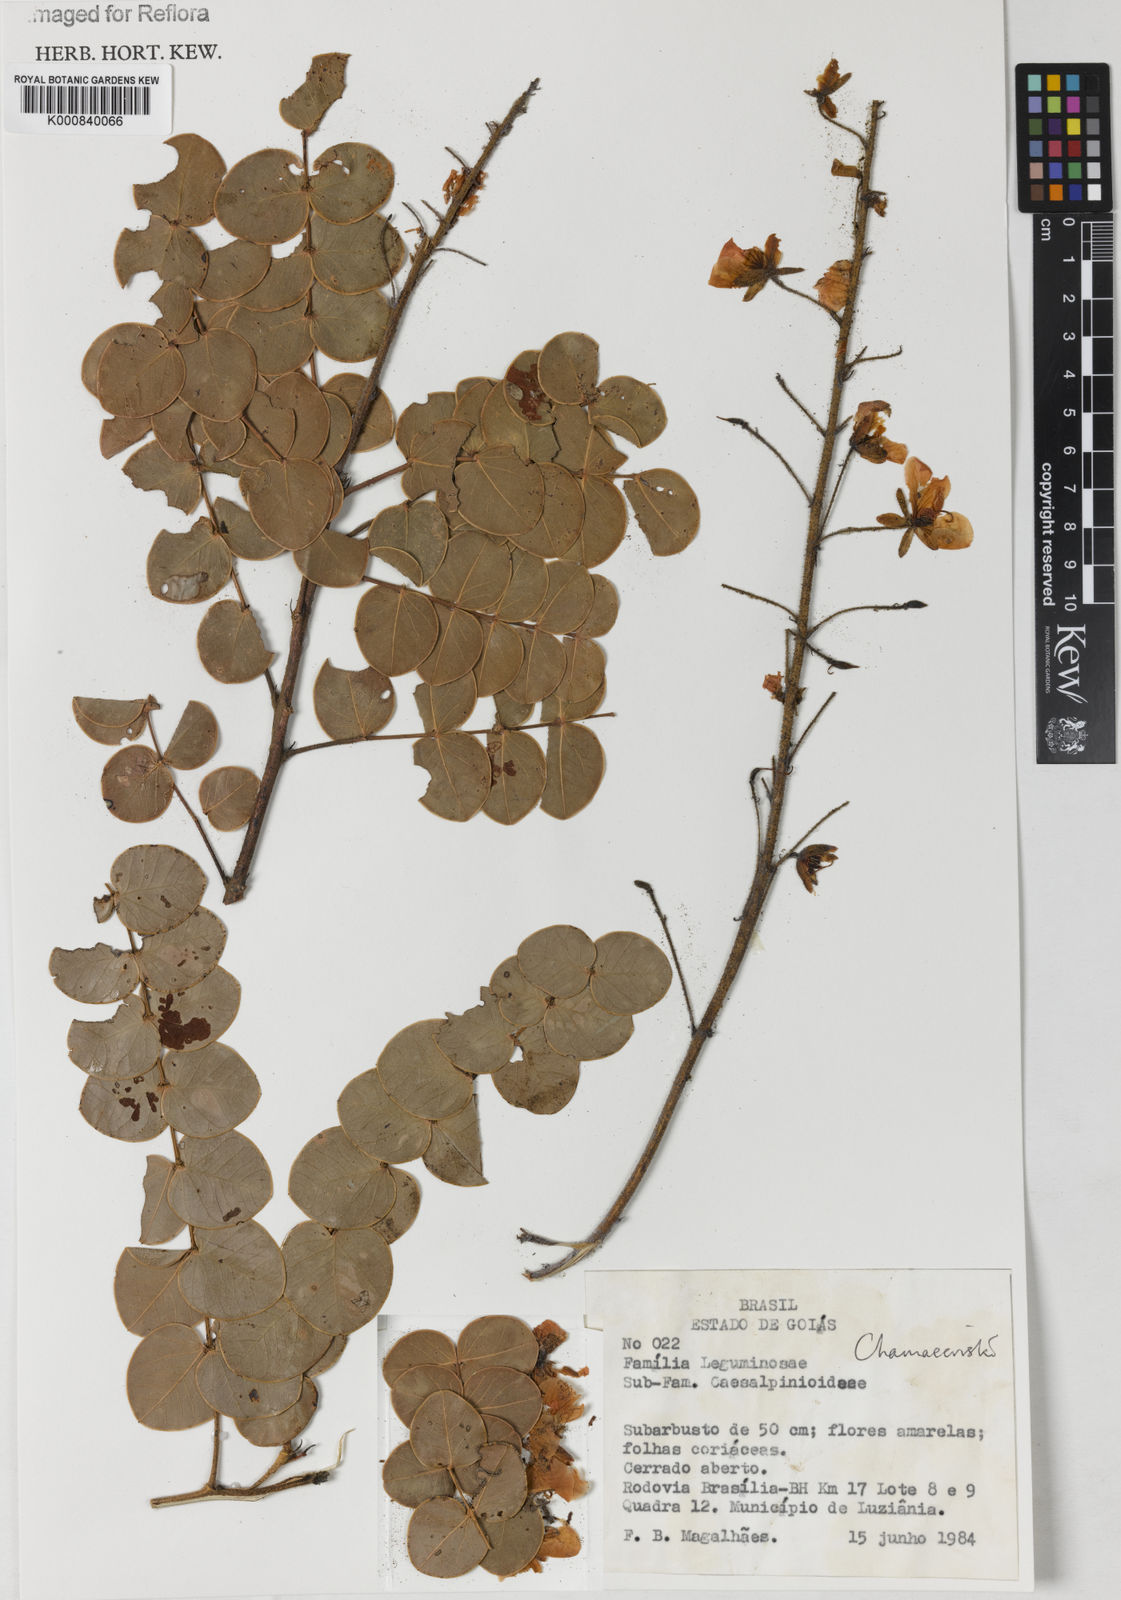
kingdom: Plantae
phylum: Tracheophyta
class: Magnoliopsida
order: Fabales
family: Fabaceae
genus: Chamaecrista
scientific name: Chamaecrista lundii
